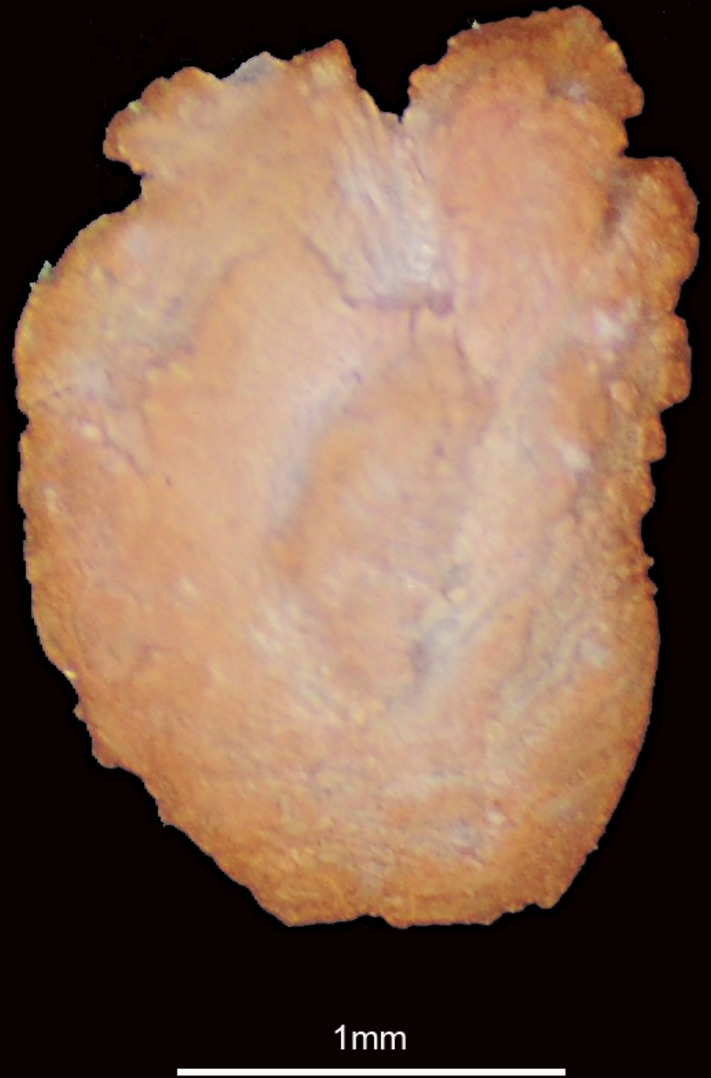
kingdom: Animalia
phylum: Chordata
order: Clupeiformes
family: Engraulidae
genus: Thryssa
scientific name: Thryssa setirostris
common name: Longjaw thryssa
